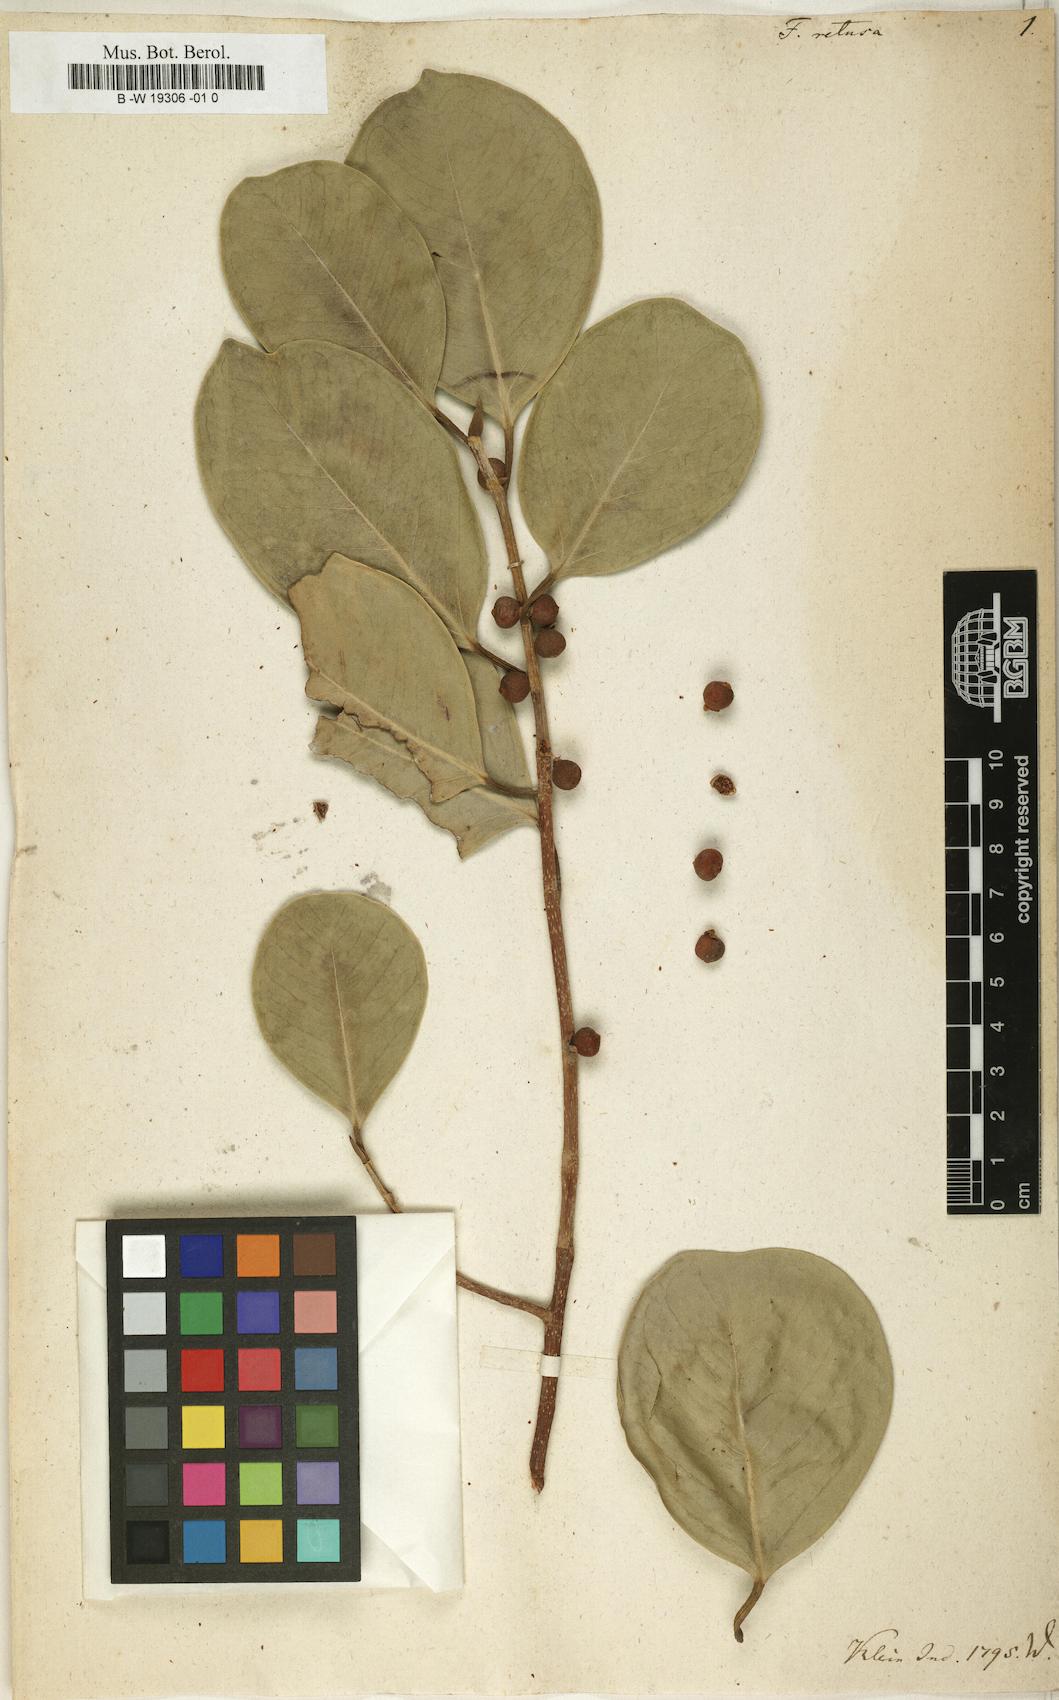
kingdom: Plantae
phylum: Tracheophyta
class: Magnoliopsida
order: Rosales
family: Moraceae
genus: Ficus
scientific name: Ficus retusa
